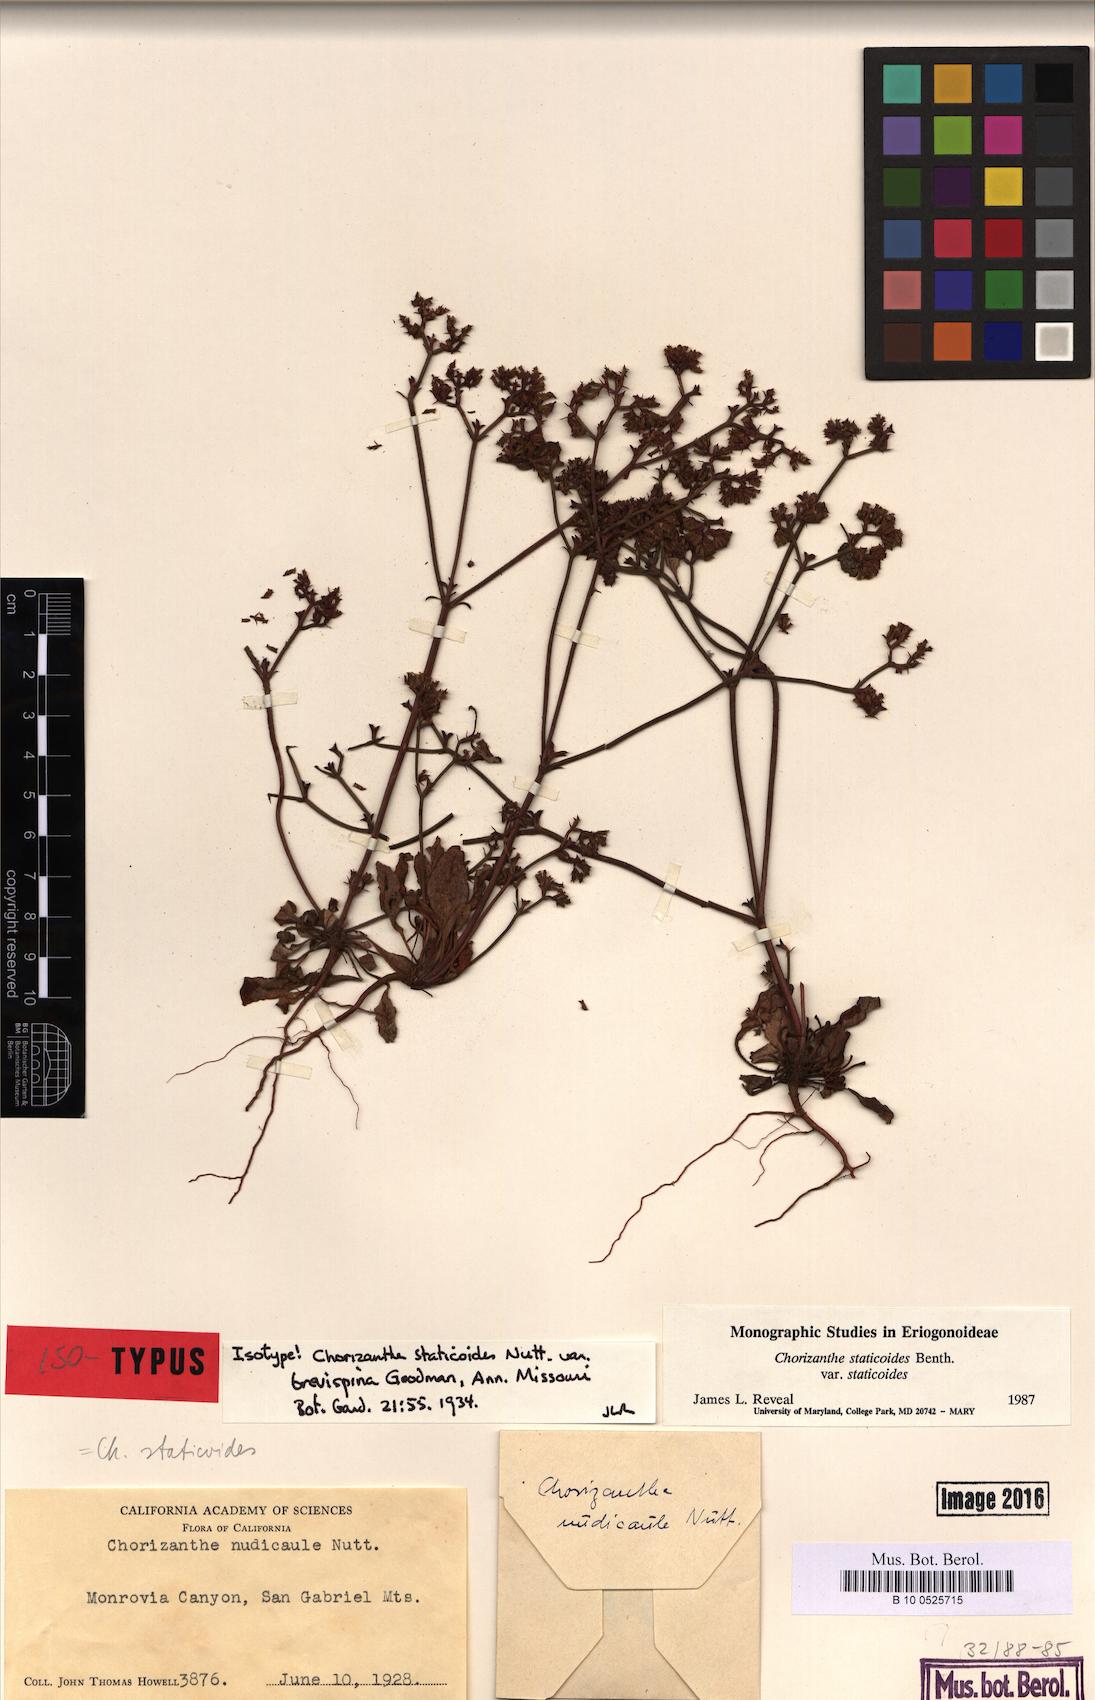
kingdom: Plantae
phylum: Tracheophyta
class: Magnoliopsida
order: Caryophyllales
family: Polygonaceae
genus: Chorizanthe
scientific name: Chorizanthe staticoides
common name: Turkish rugging
